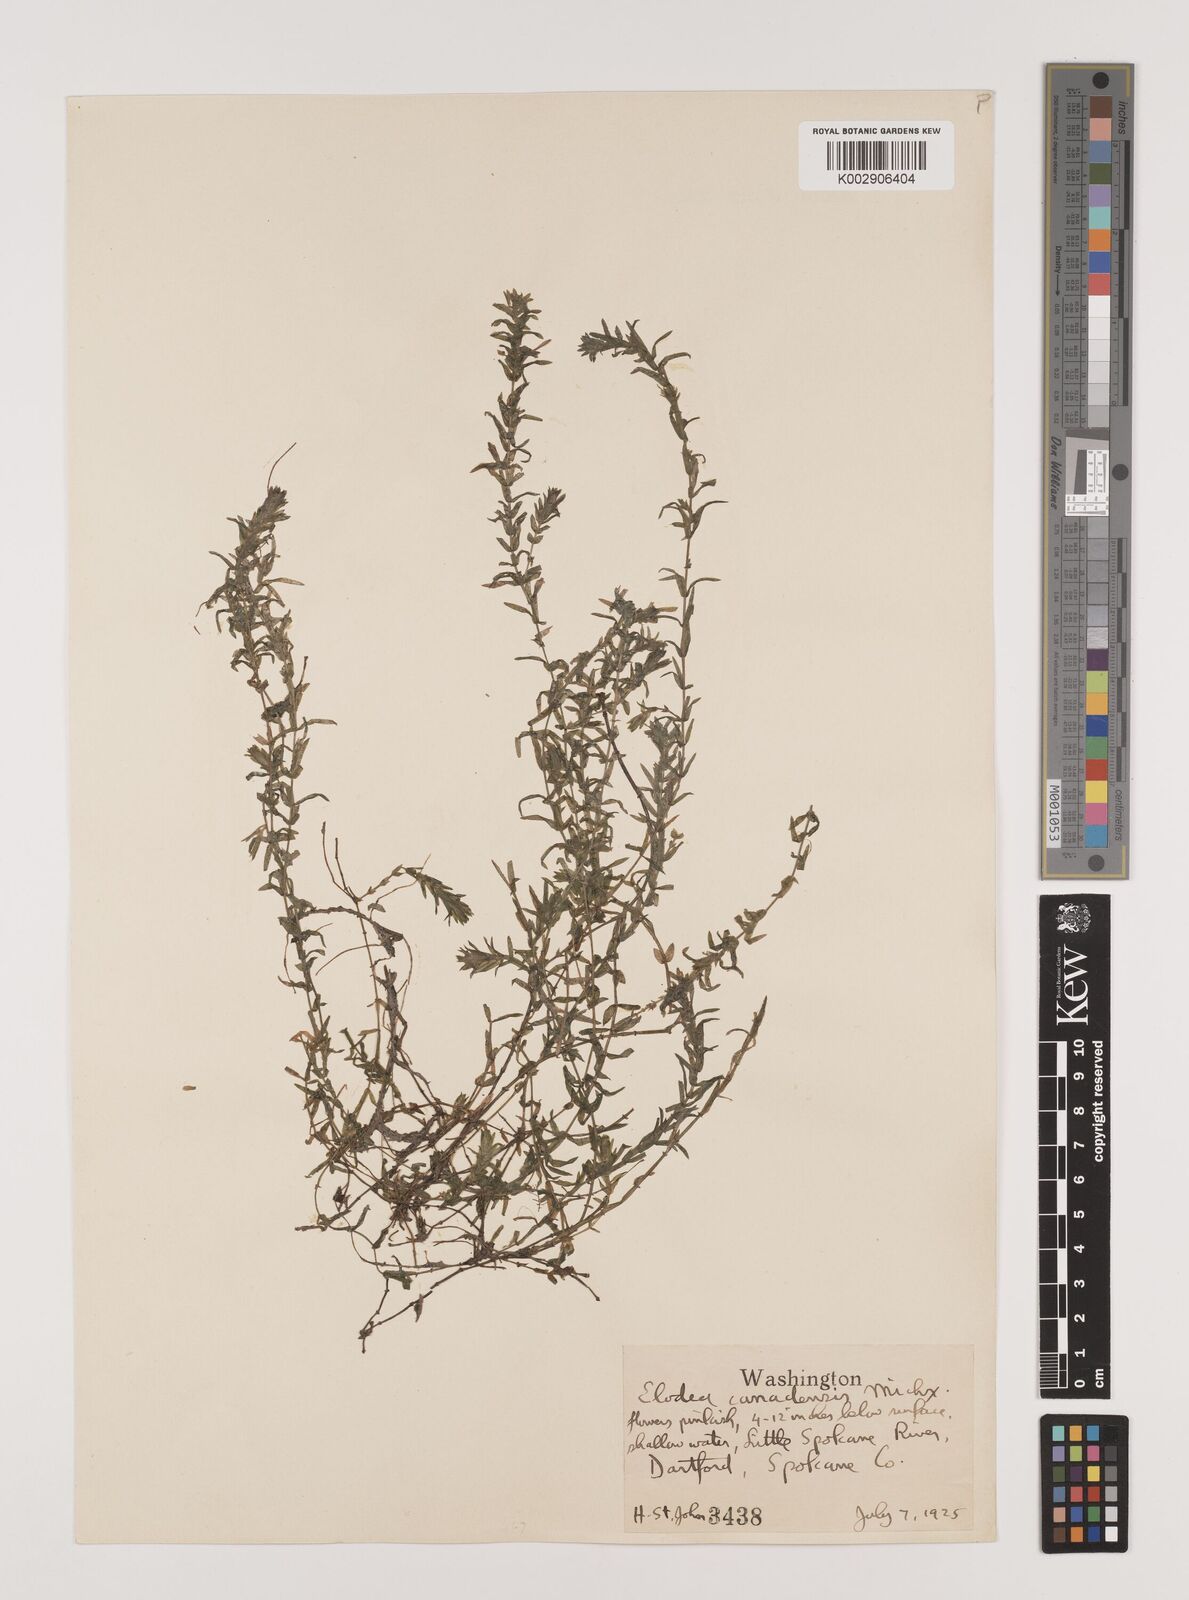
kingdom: Plantae
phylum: Tracheophyta
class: Liliopsida
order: Alismatales
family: Hydrocharitaceae
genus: Elodea
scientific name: Elodea canadensis
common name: Canadian waterweed
